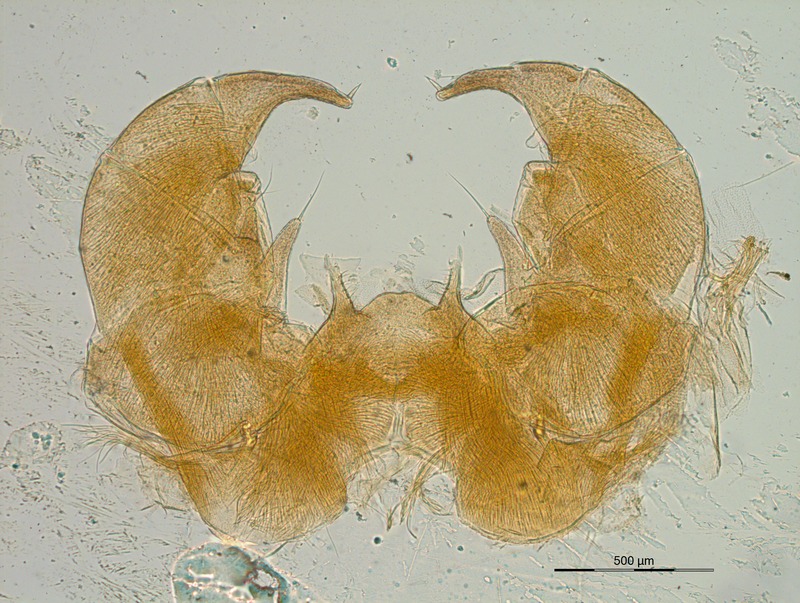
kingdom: Animalia
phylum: Arthropoda
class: Diplopoda
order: Glomerida
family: Glomeridae
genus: Glomeris
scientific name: Glomeris mnischechi
